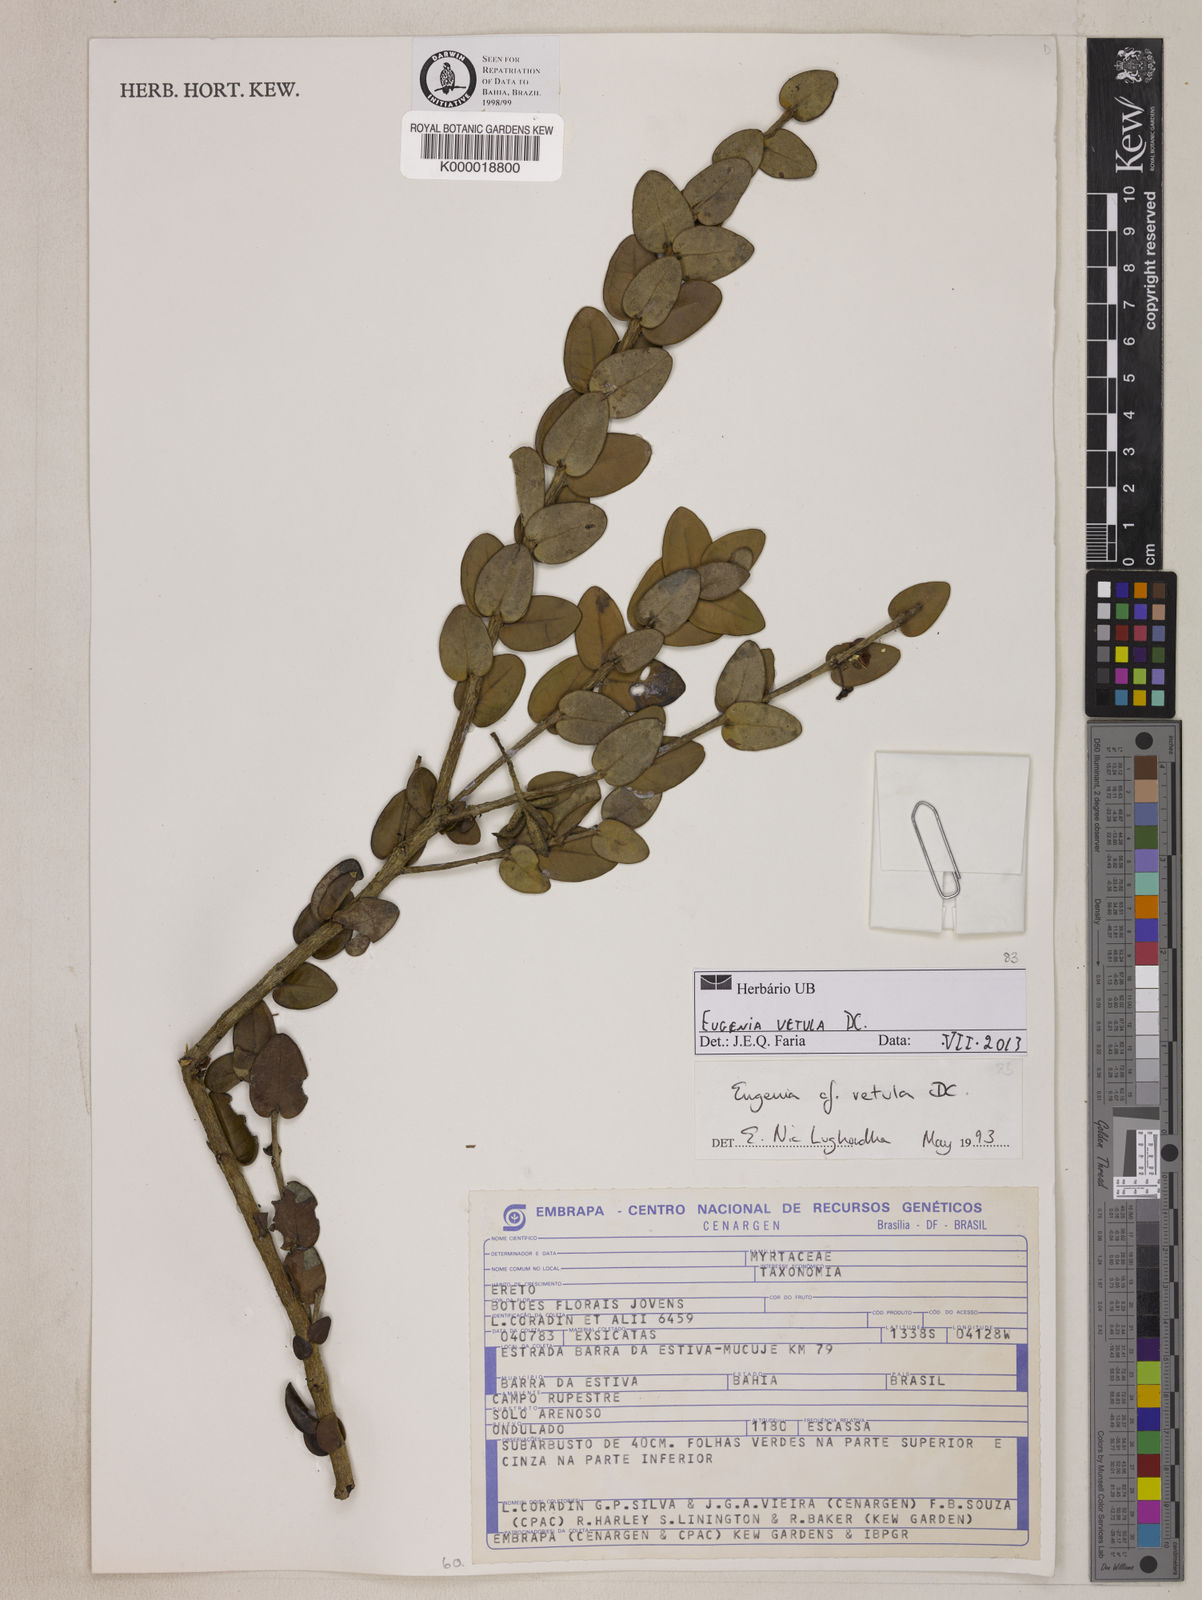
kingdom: Plantae
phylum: Tracheophyta
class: Magnoliopsida
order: Myrtales
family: Myrtaceae
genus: Eugenia
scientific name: Eugenia vetula
